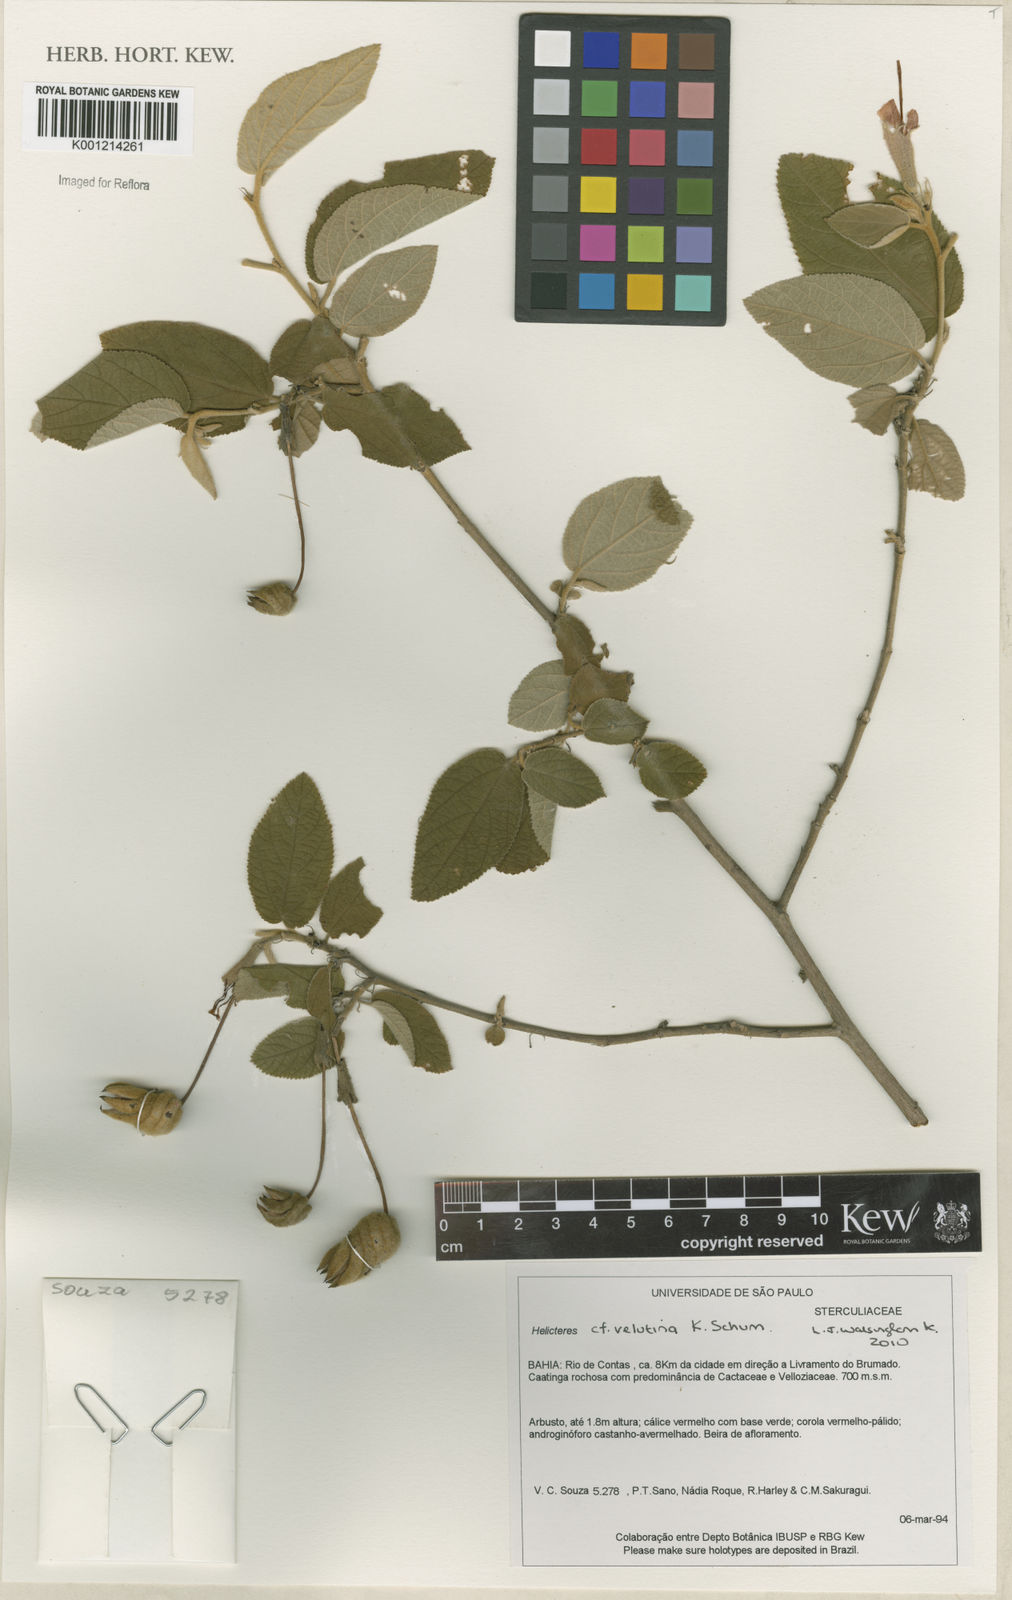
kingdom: Plantae
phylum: Tracheophyta
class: Magnoliopsida
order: Malvales
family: Malvaceae
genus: Helicteres
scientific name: Helicteres velutina
